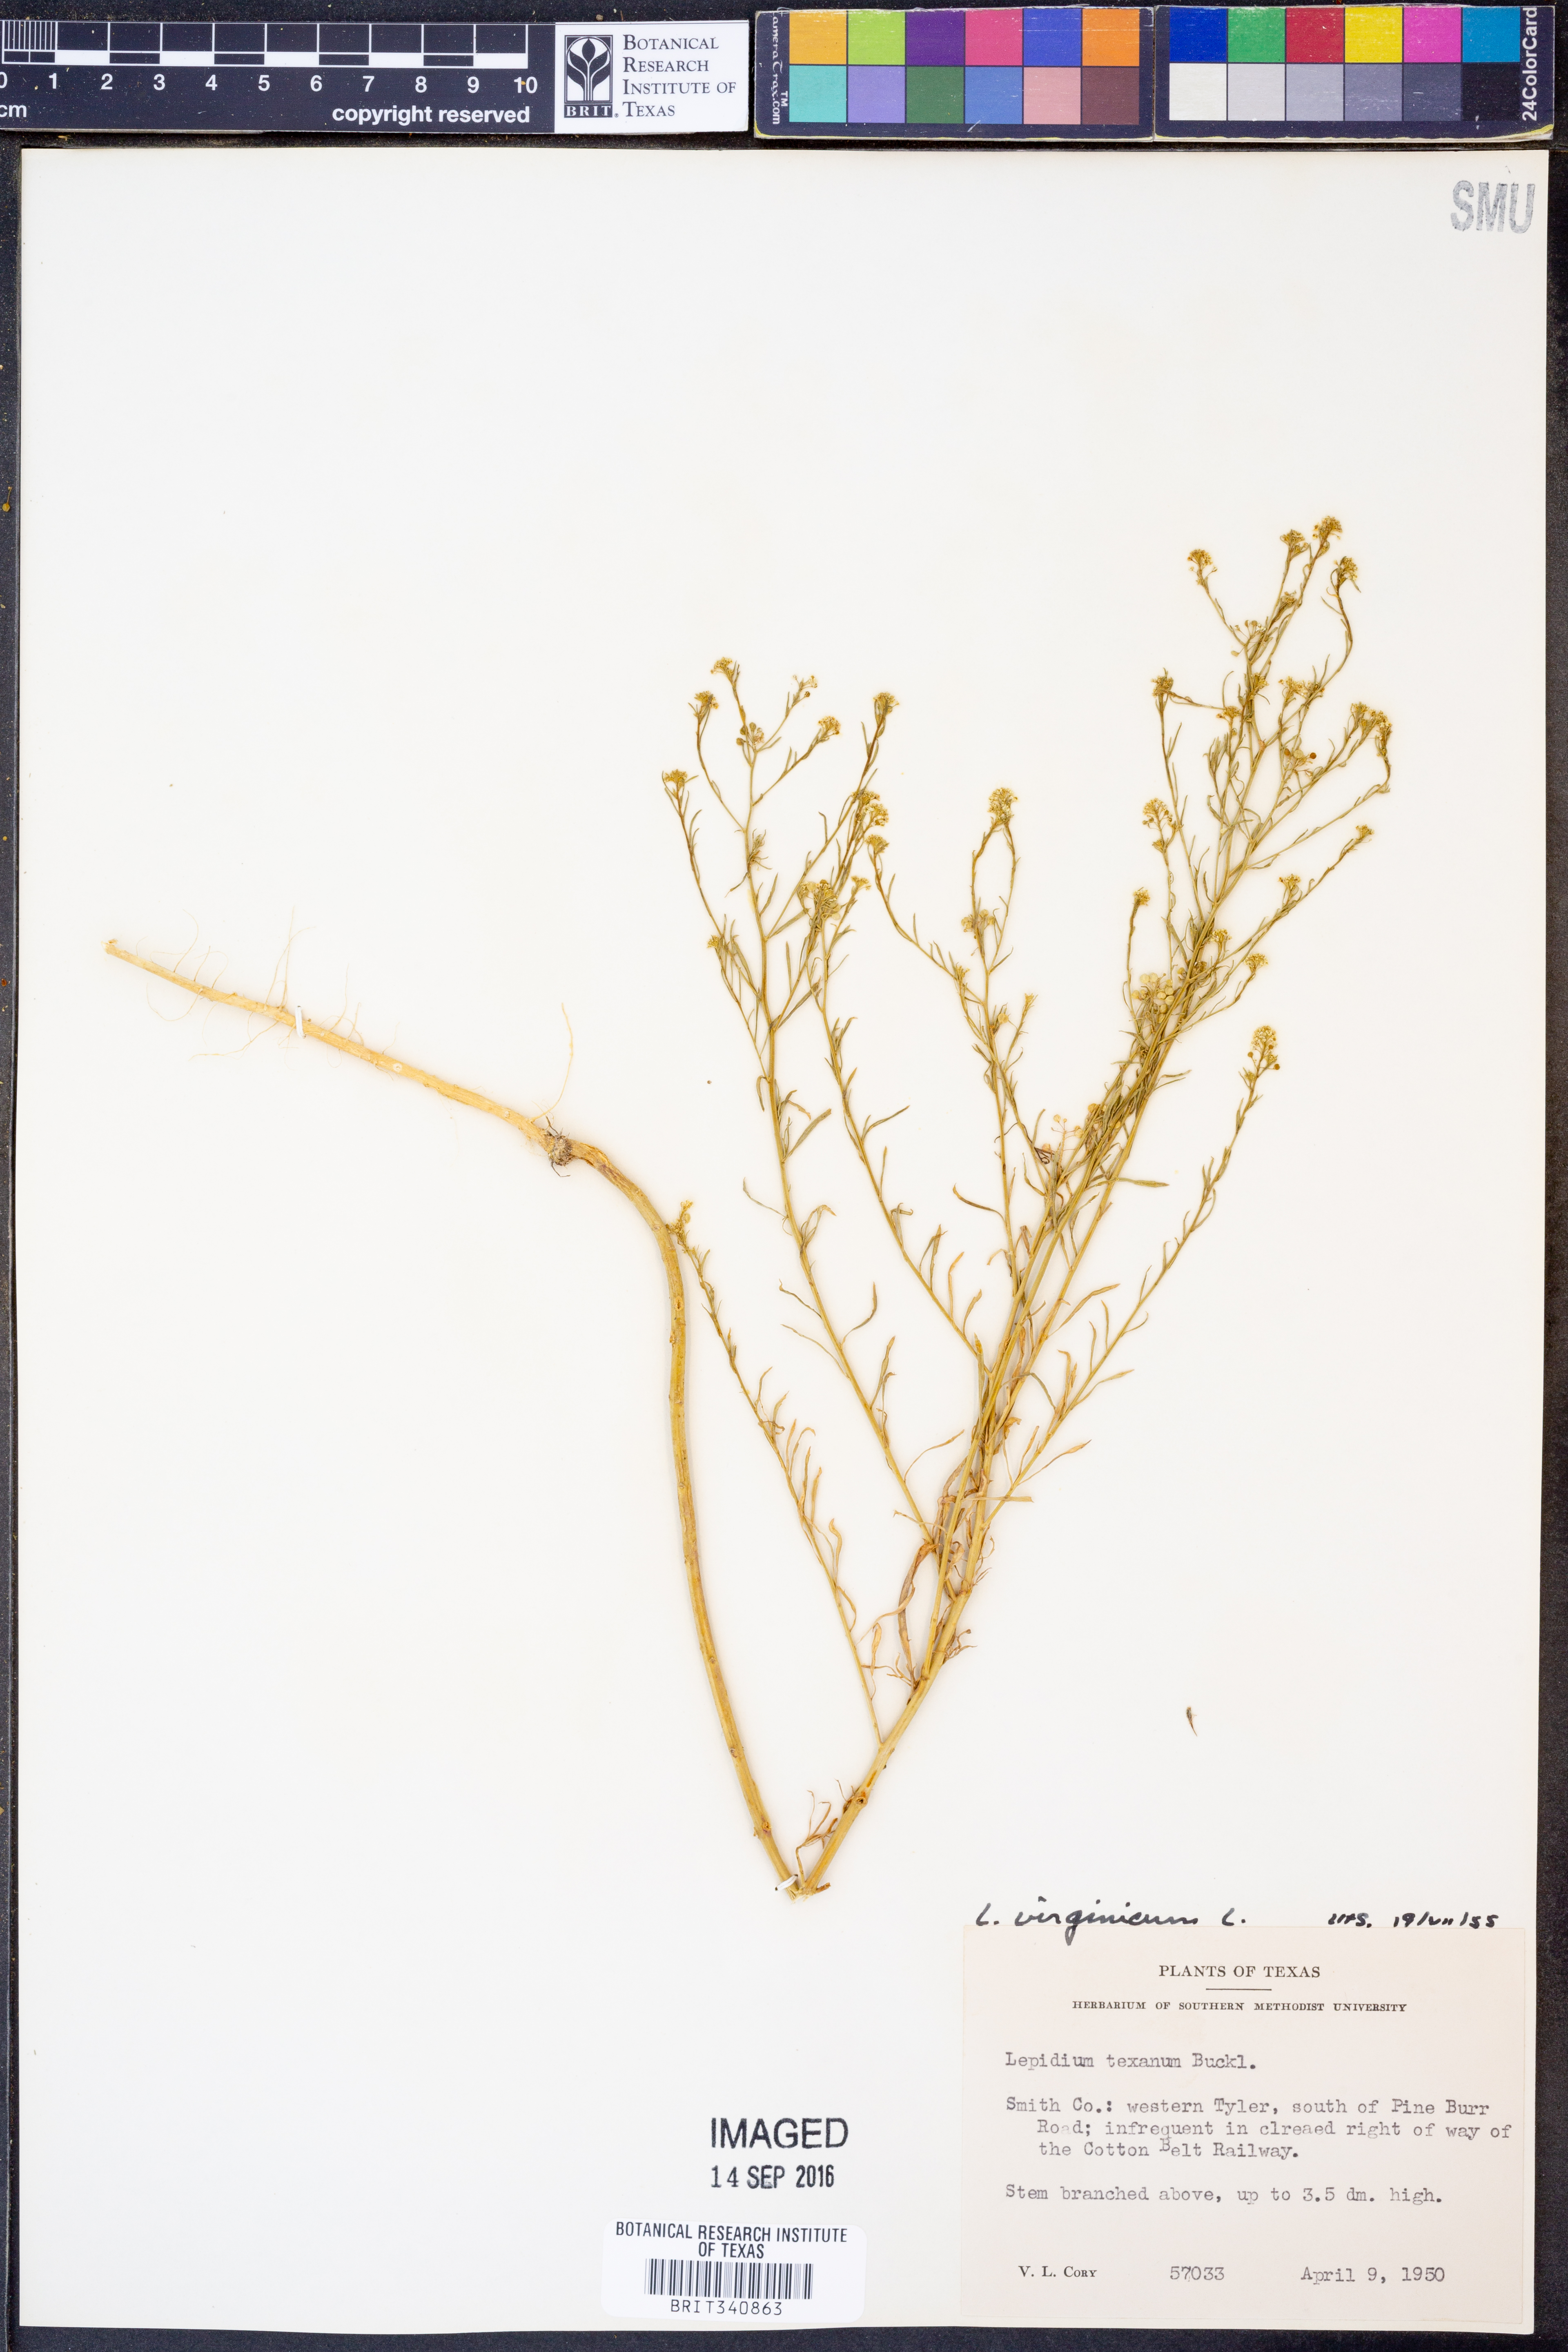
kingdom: Plantae
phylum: Tracheophyta
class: Magnoliopsida
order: Brassicales
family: Brassicaceae
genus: Lepidium
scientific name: Lepidium virginicum
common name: Least pepperwort
